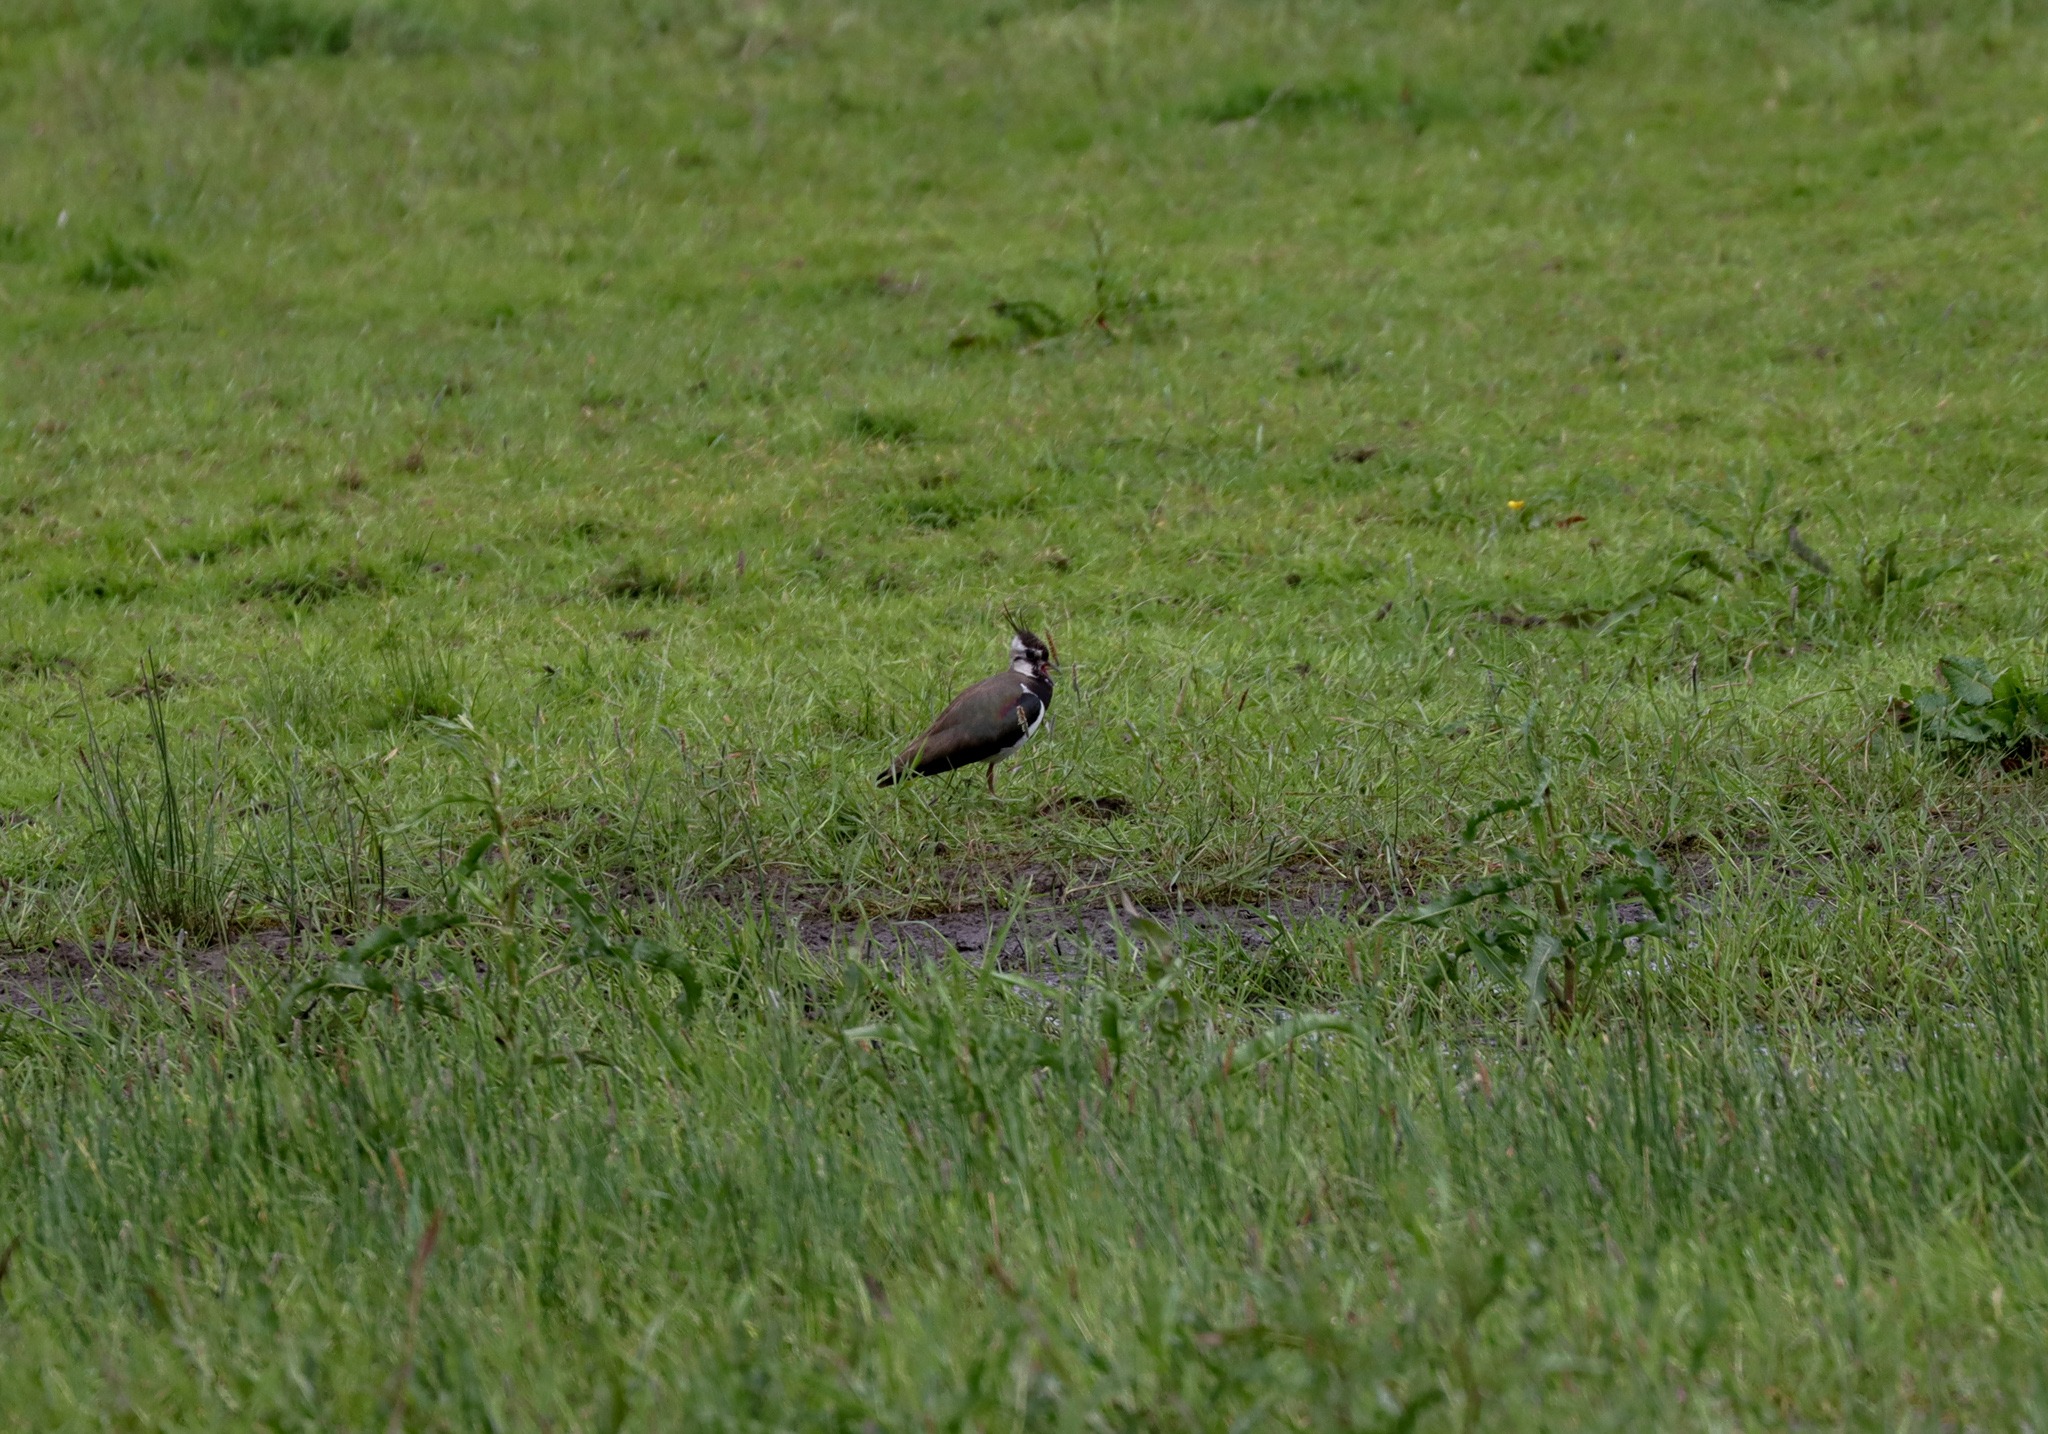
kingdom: Animalia
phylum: Chordata
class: Aves
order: Charadriiformes
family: Charadriidae
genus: Vanellus
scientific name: Vanellus vanellus
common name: Vibe
